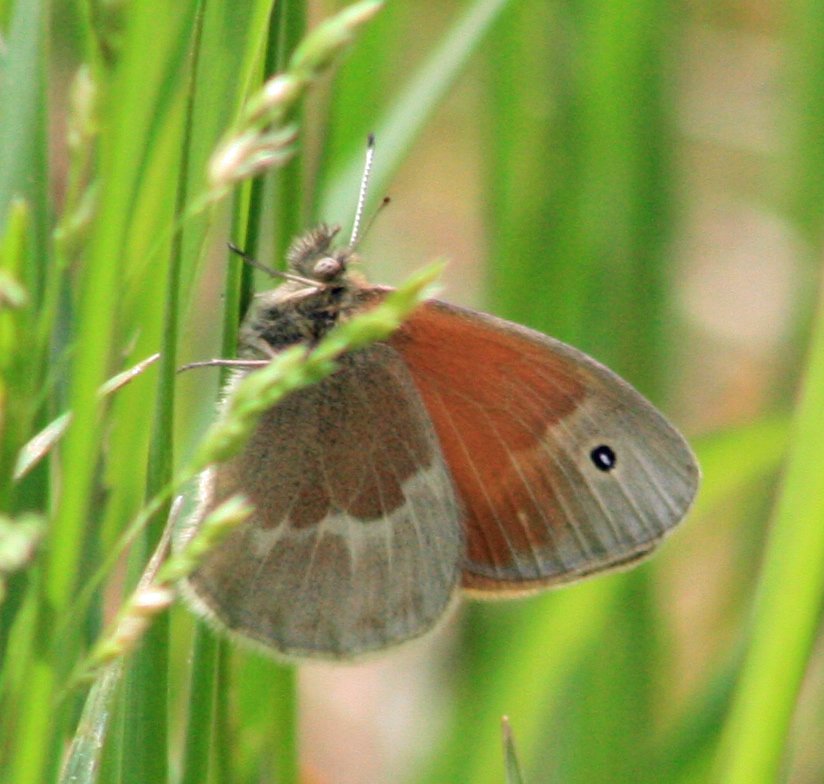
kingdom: Animalia
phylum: Arthropoda
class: Insecta
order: Lepidoptera
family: Nymphalidae
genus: Coenonympha
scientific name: Coenonympha tullia
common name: Large Heath
